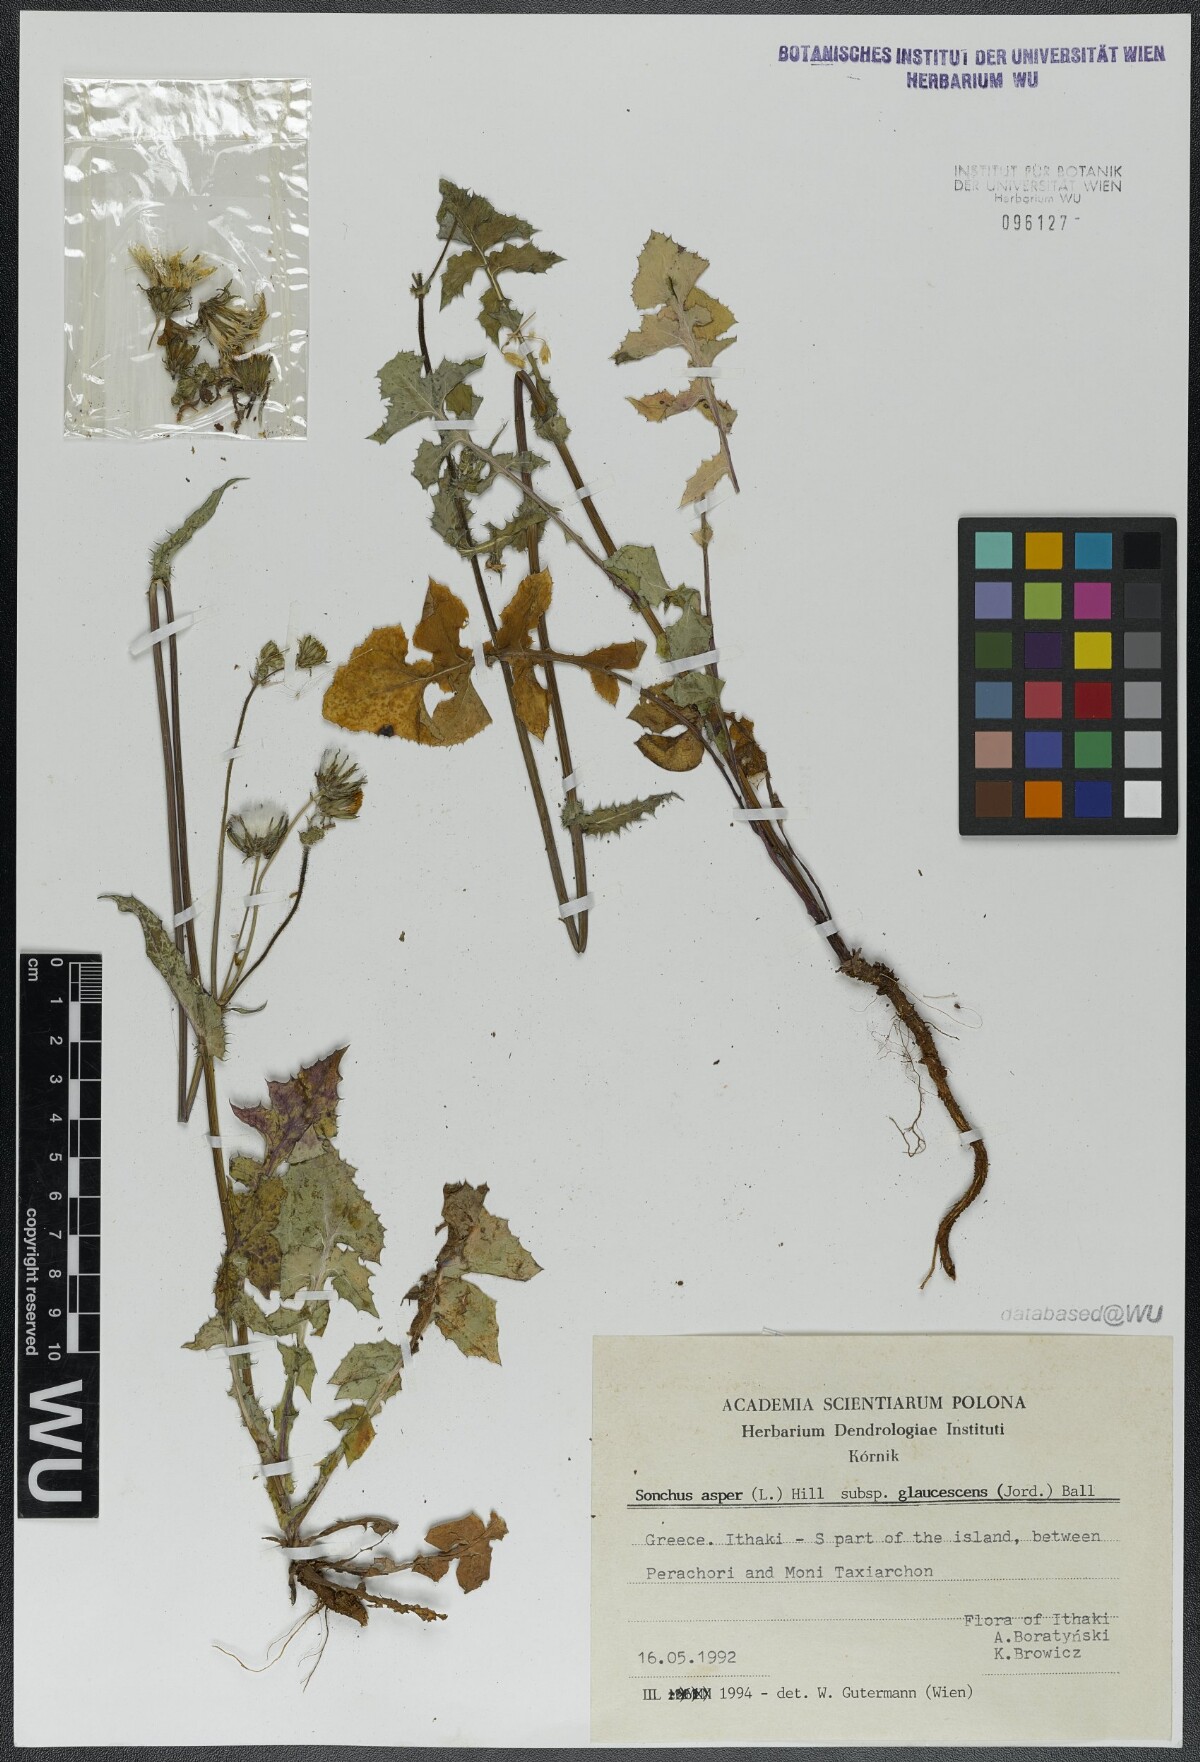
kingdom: Plantae
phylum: Tracheophyta
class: Magnoliopsida
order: Asterales
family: Asteraceae
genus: Sonchus
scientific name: Sonchus asper
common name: Prickly sow-thistle
